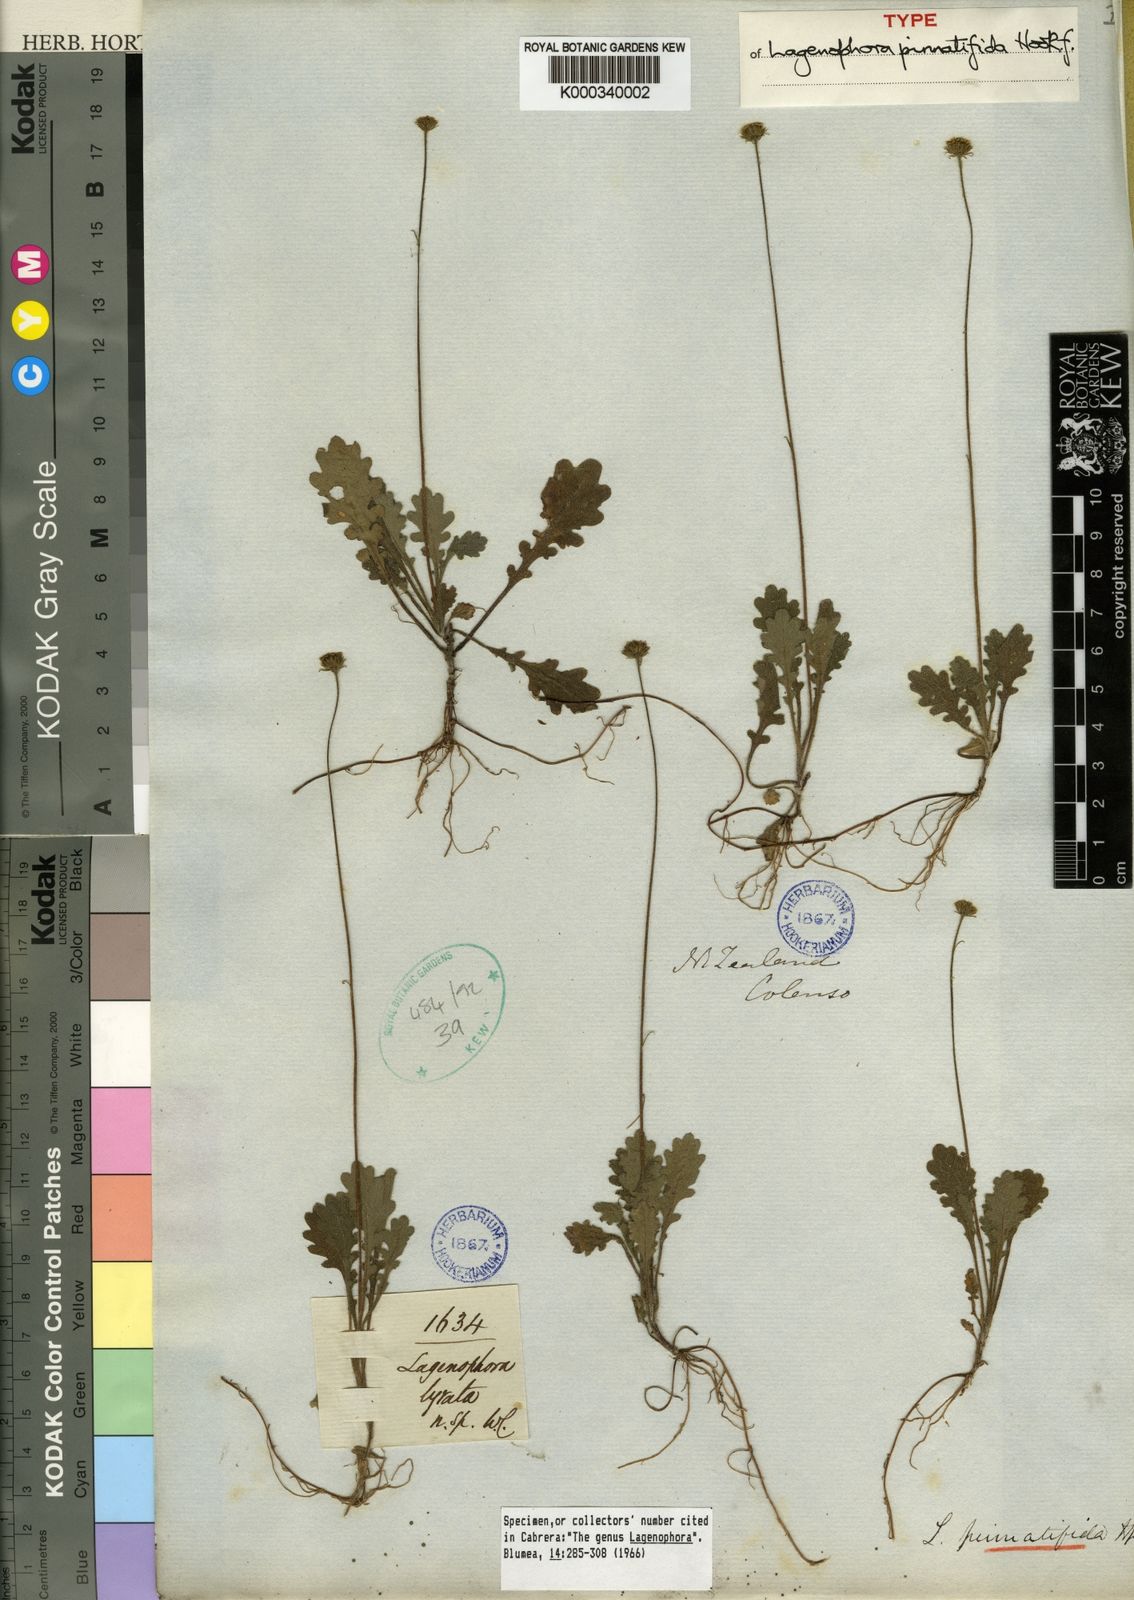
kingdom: Plantae
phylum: Tracheophyta
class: Magnoliopsida
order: Asterales
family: Asteraceae
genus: Lagenophora
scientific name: Lagenophora pinnatifida
